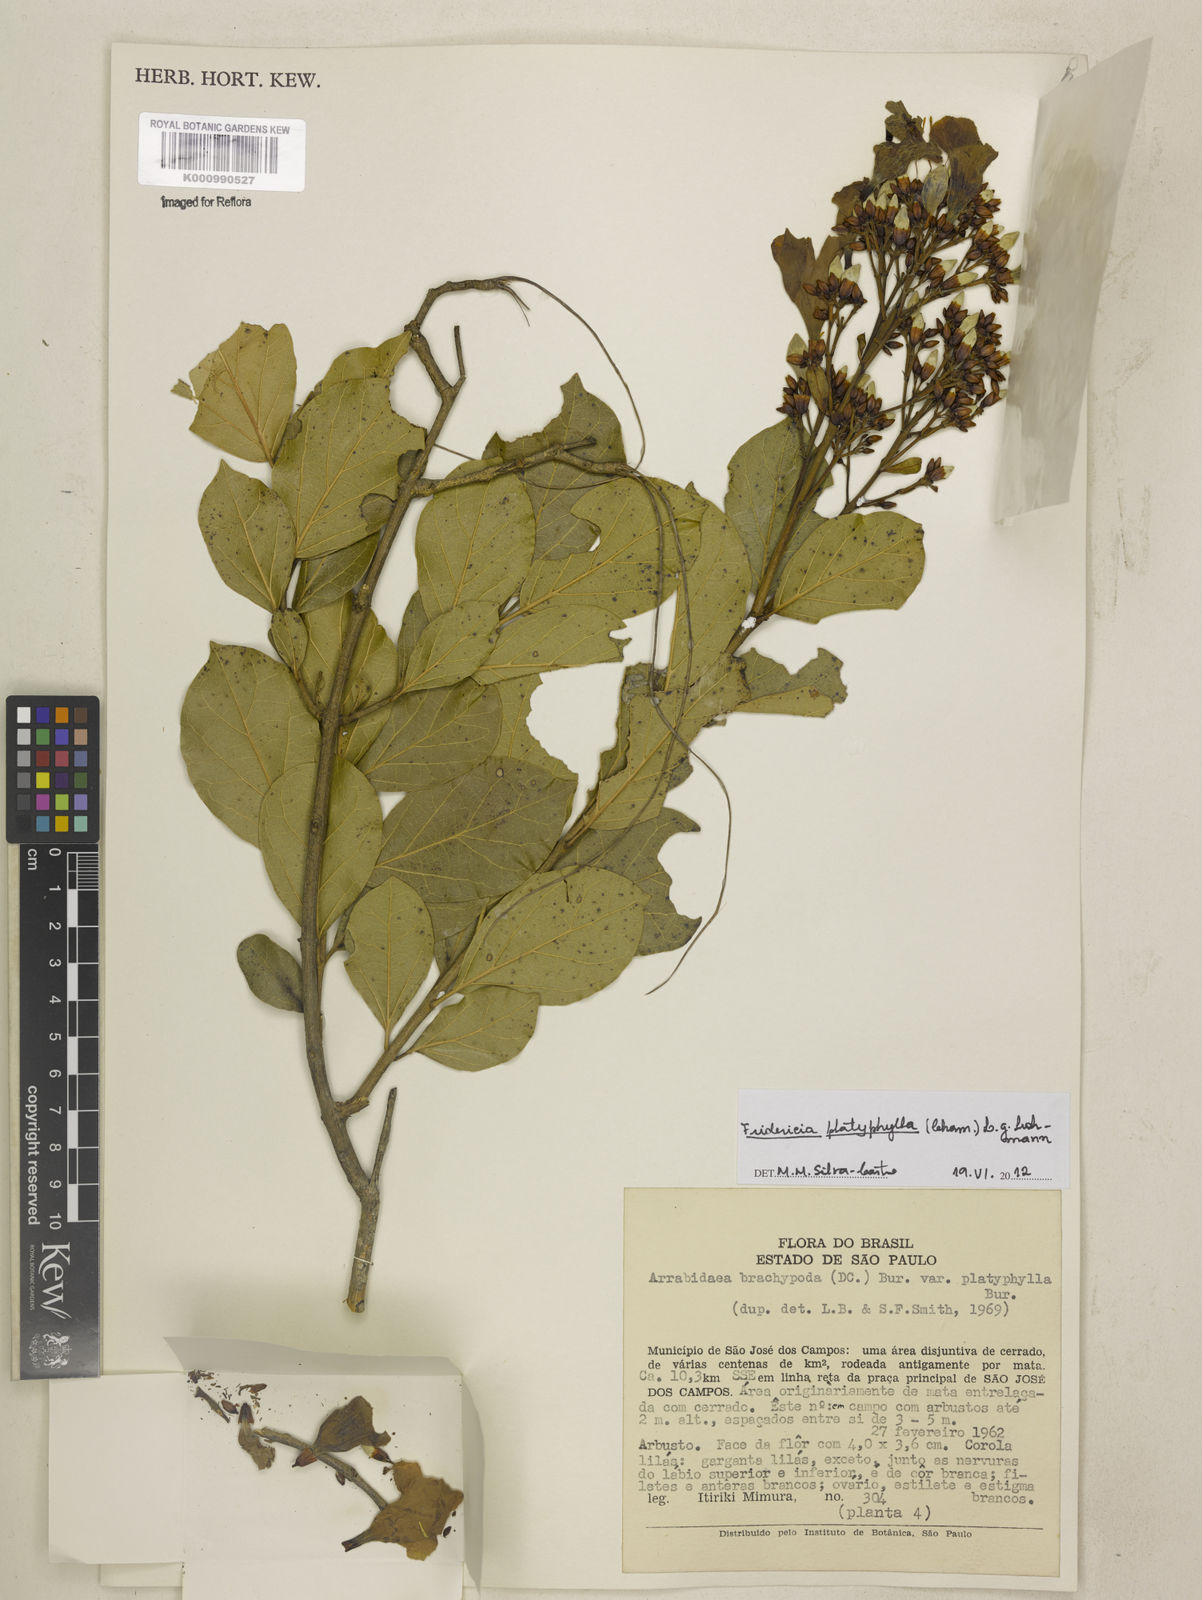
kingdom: Plantae
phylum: Tracheophyta
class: Magnoliopsida
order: Lamiales
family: Bignoniaceae
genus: Fridericia
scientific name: Fridericia platyphylla
